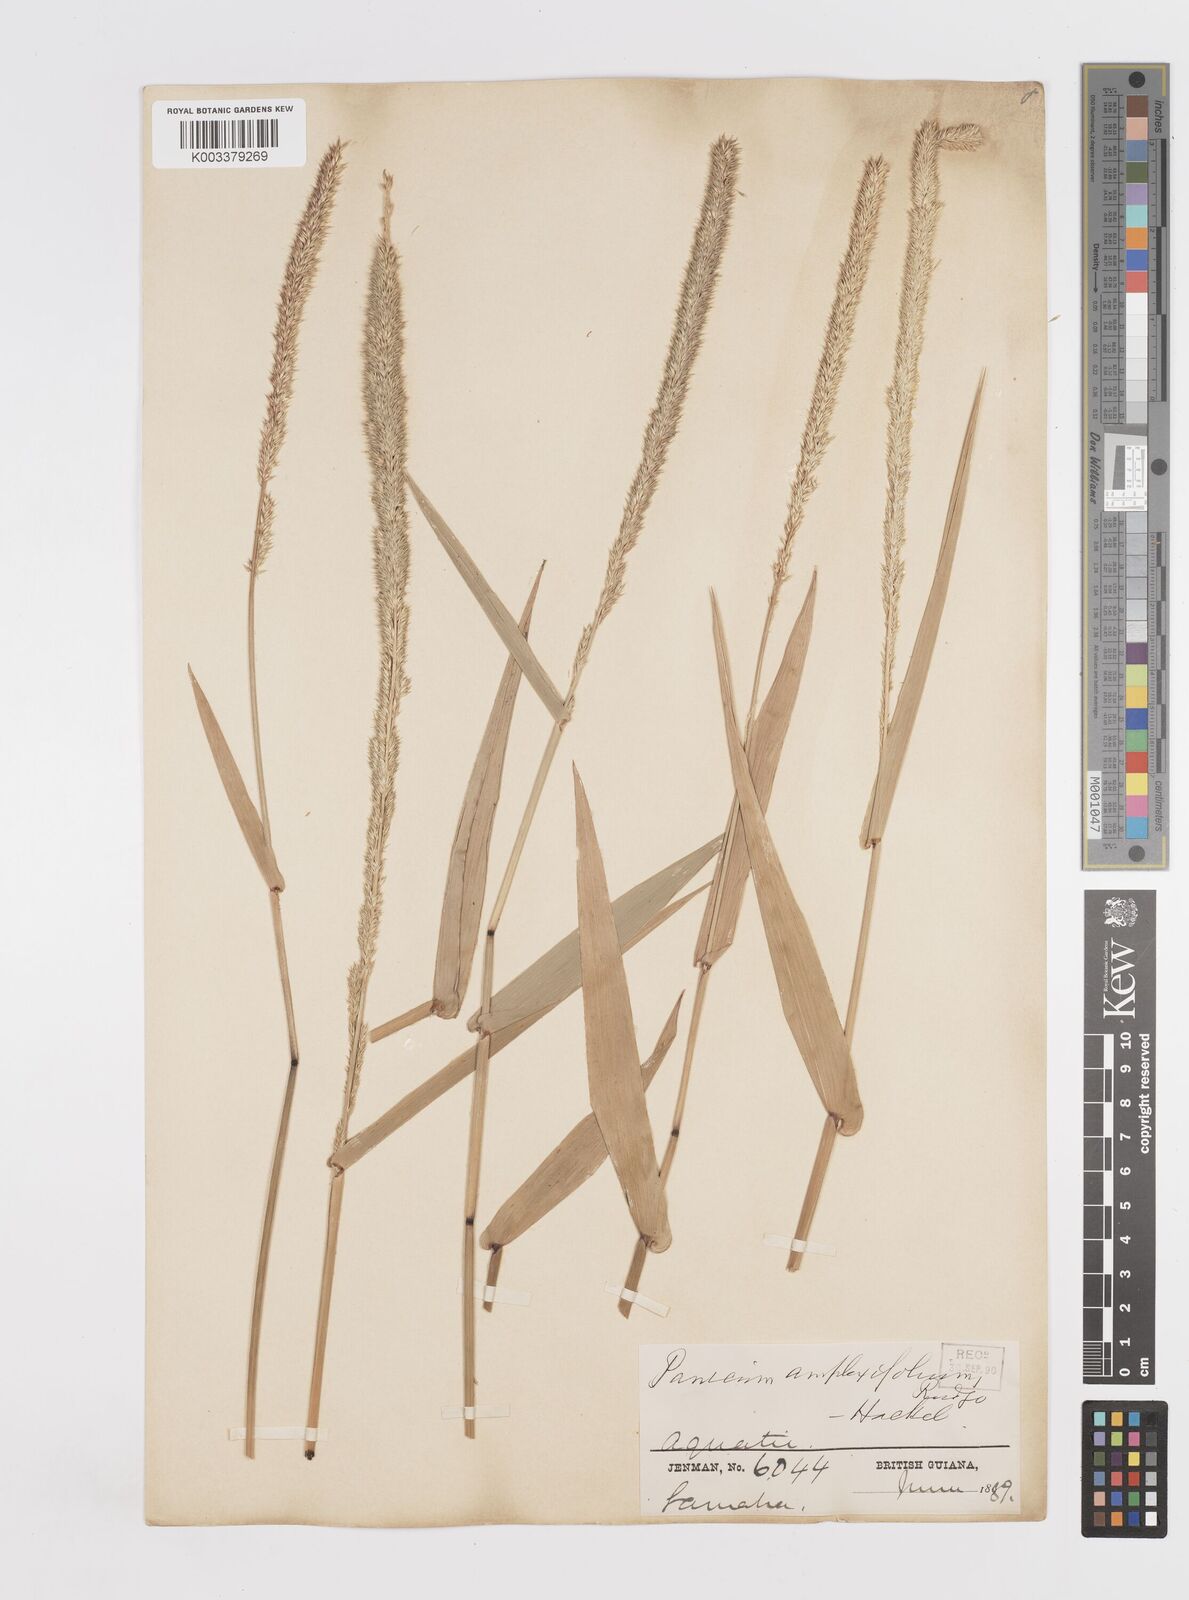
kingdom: Plantae
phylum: Tracheophyta
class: Liliopsida
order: Poales
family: Poaceae
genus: Hymenachne
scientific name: Hymenachne amplexicaulis
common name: Olive hymenachne
